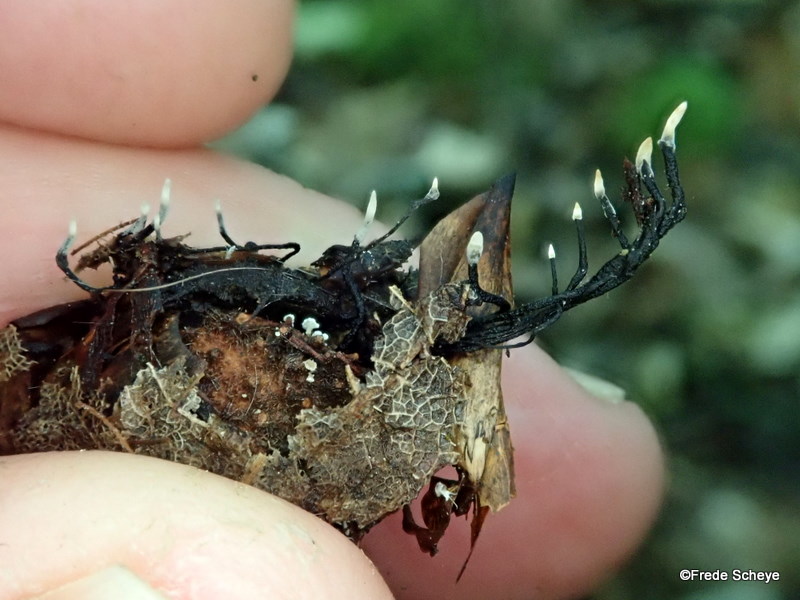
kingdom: Fungi
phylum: Ascomycota
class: Sordariomycetes
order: Xylariales
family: Xylariaceae
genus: Xylaria
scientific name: Xylaria carpophila
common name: bogskål-stødsvamp
